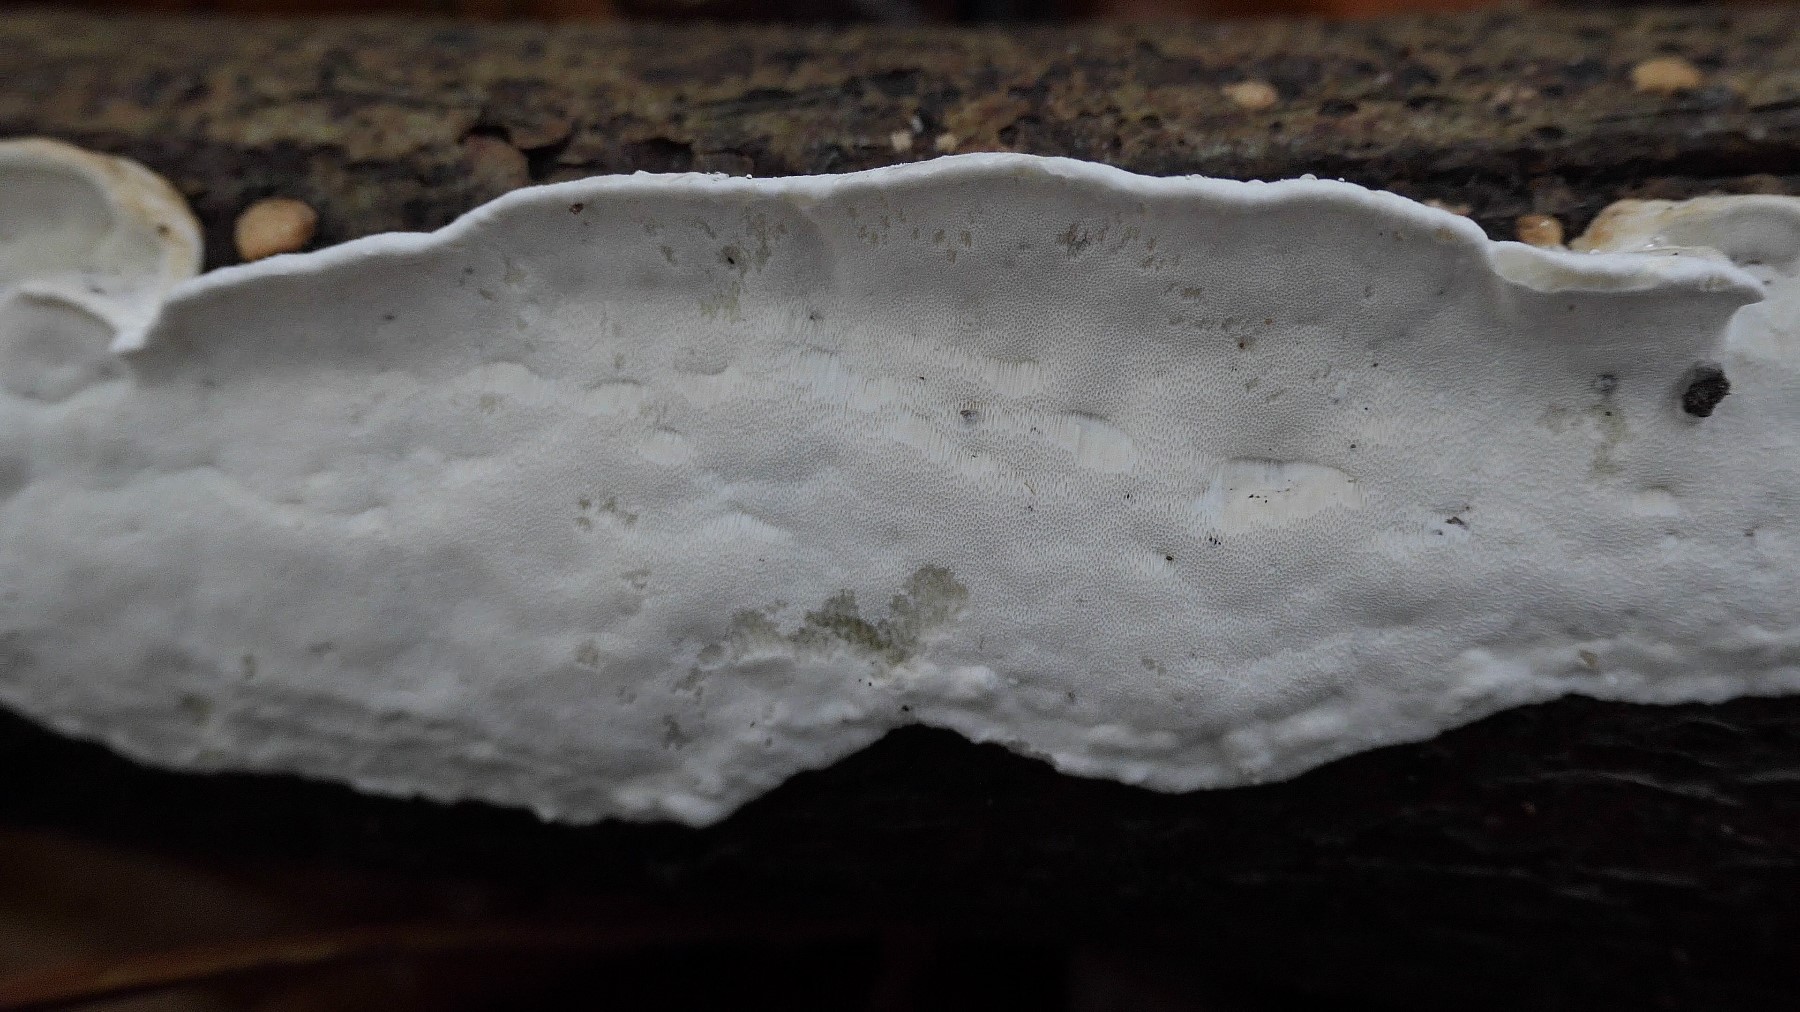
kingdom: Fungi
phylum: Basidiomycota
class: Agaricomycetes
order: Polyporales
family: Incrustoporiaceae
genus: Skeletocutis
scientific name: Skeletocutis nemoralis
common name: stor krystalporesvamp
